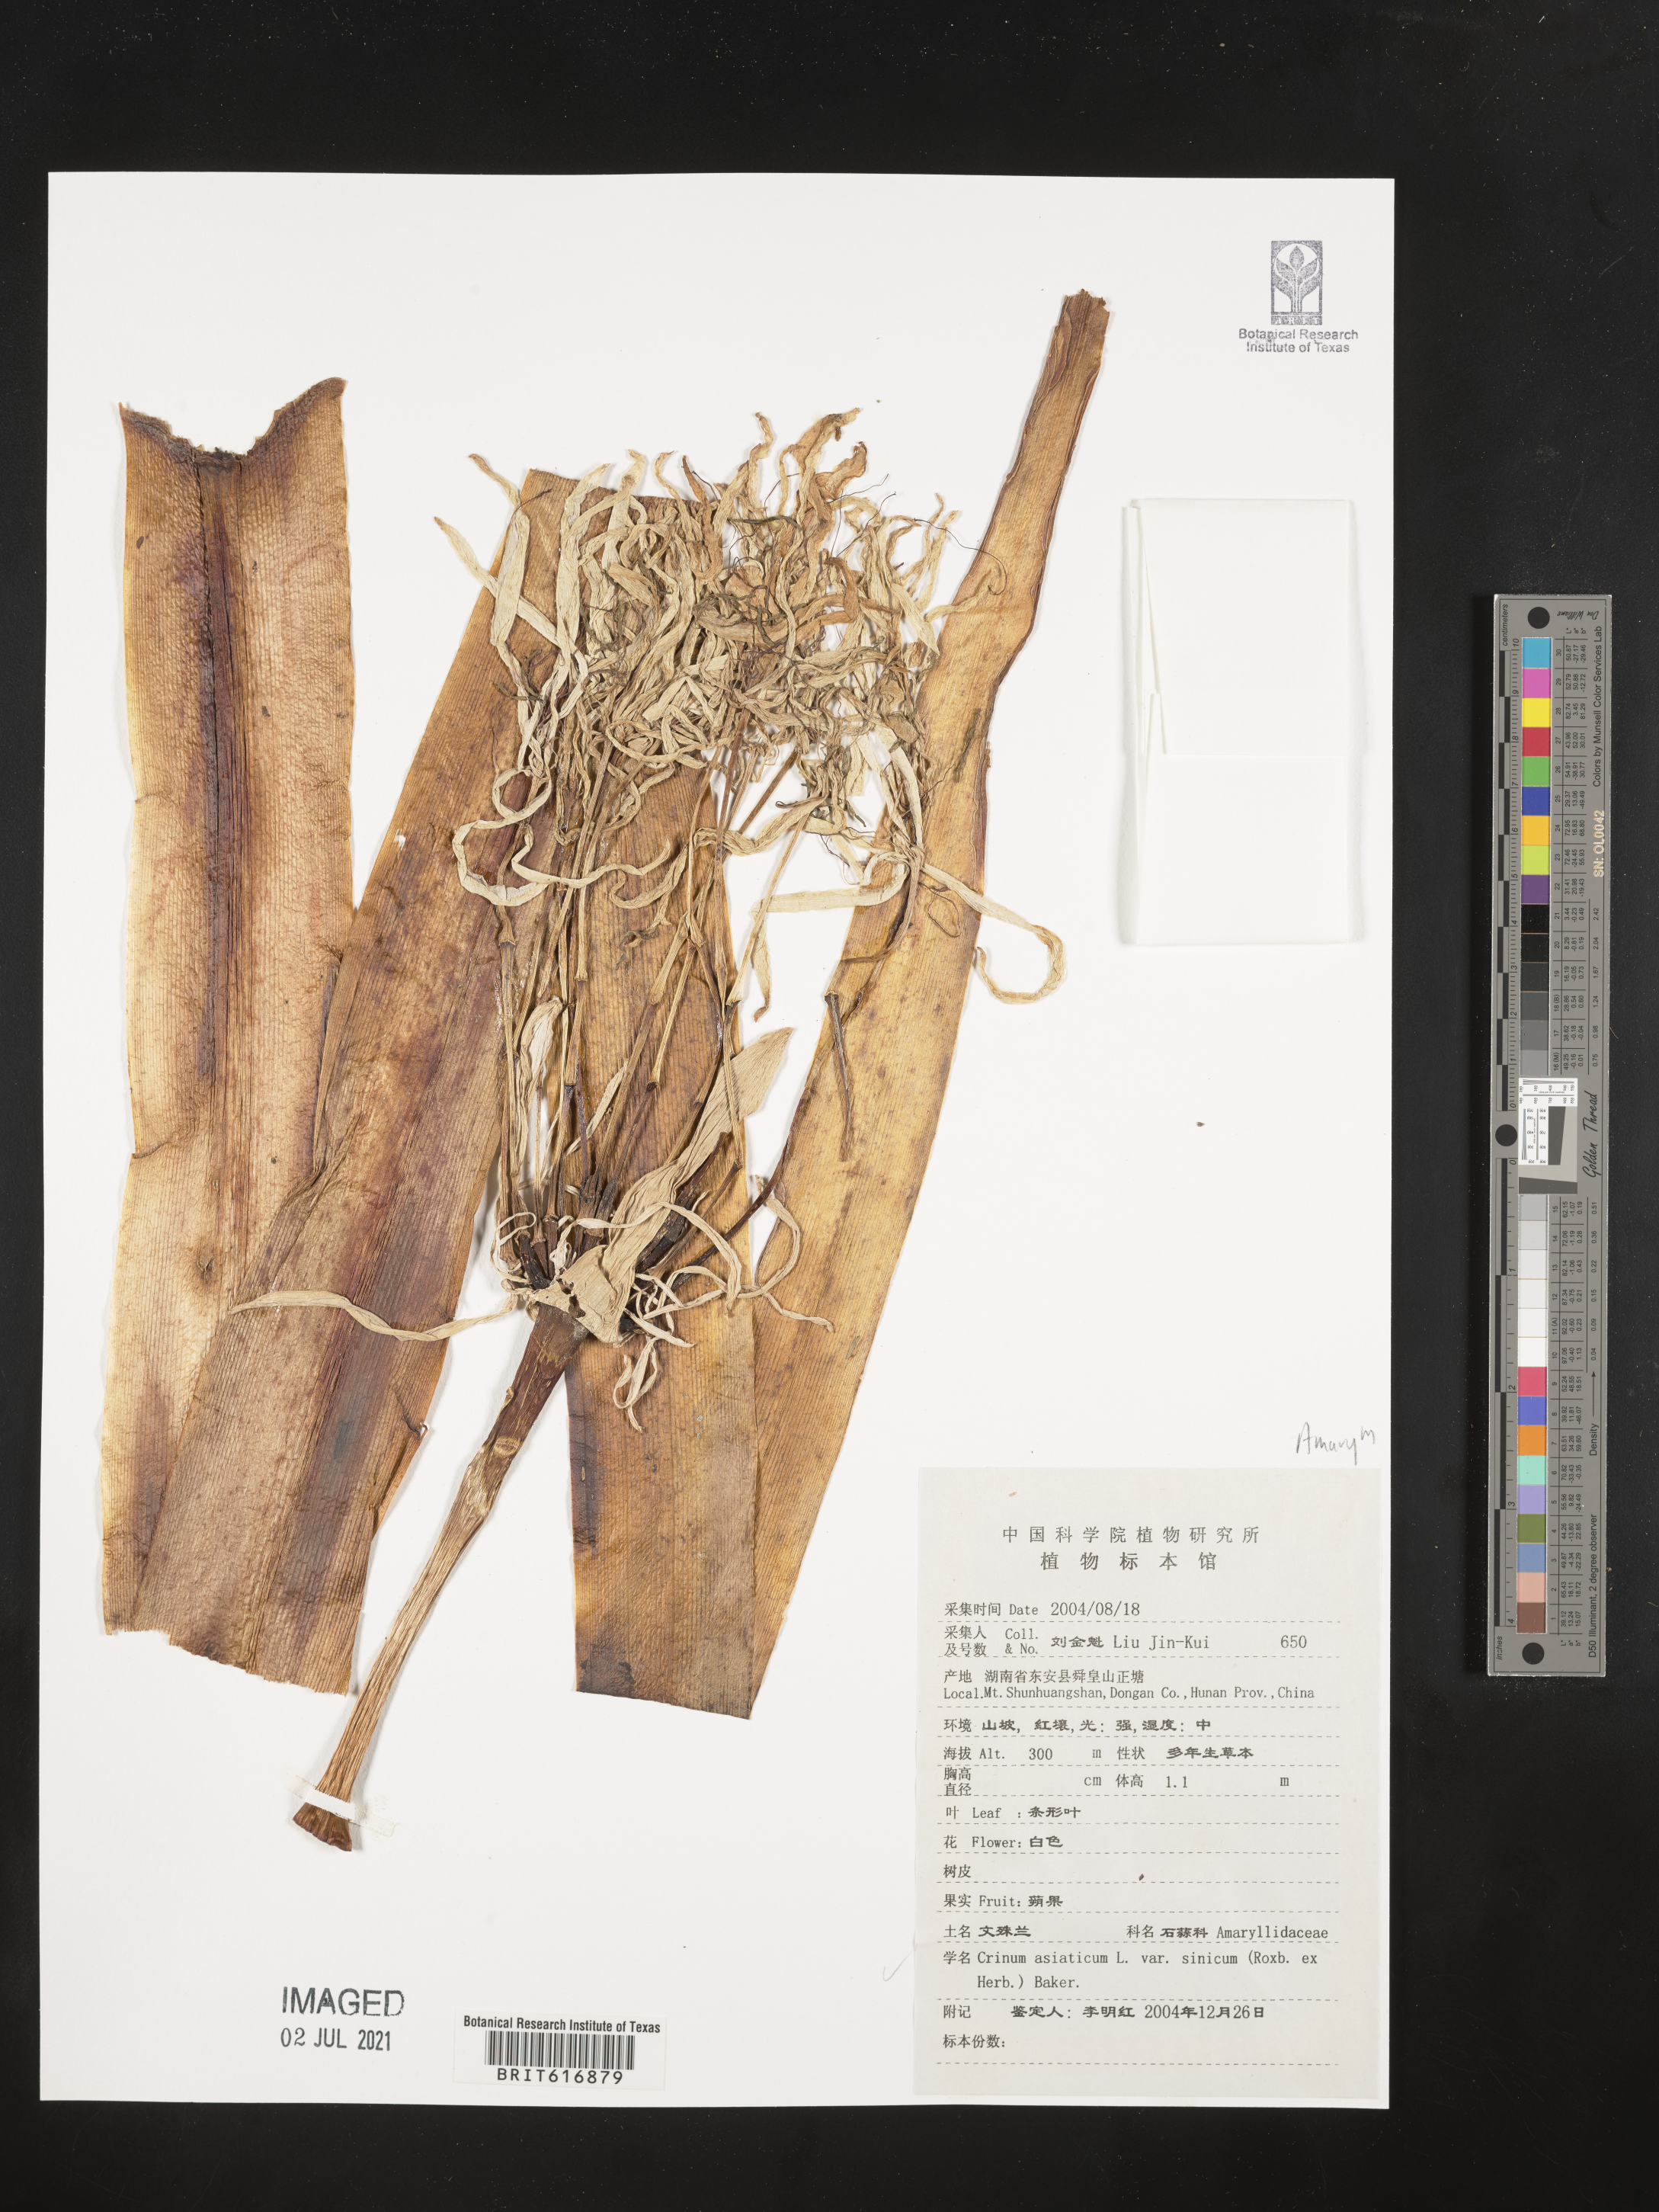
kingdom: Plantae
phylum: Tracheophyta
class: Liliopsida
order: Asparagales
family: Amaryllidaceae
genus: Crinum
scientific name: Crinum asiaticum
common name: Poisonbulb
